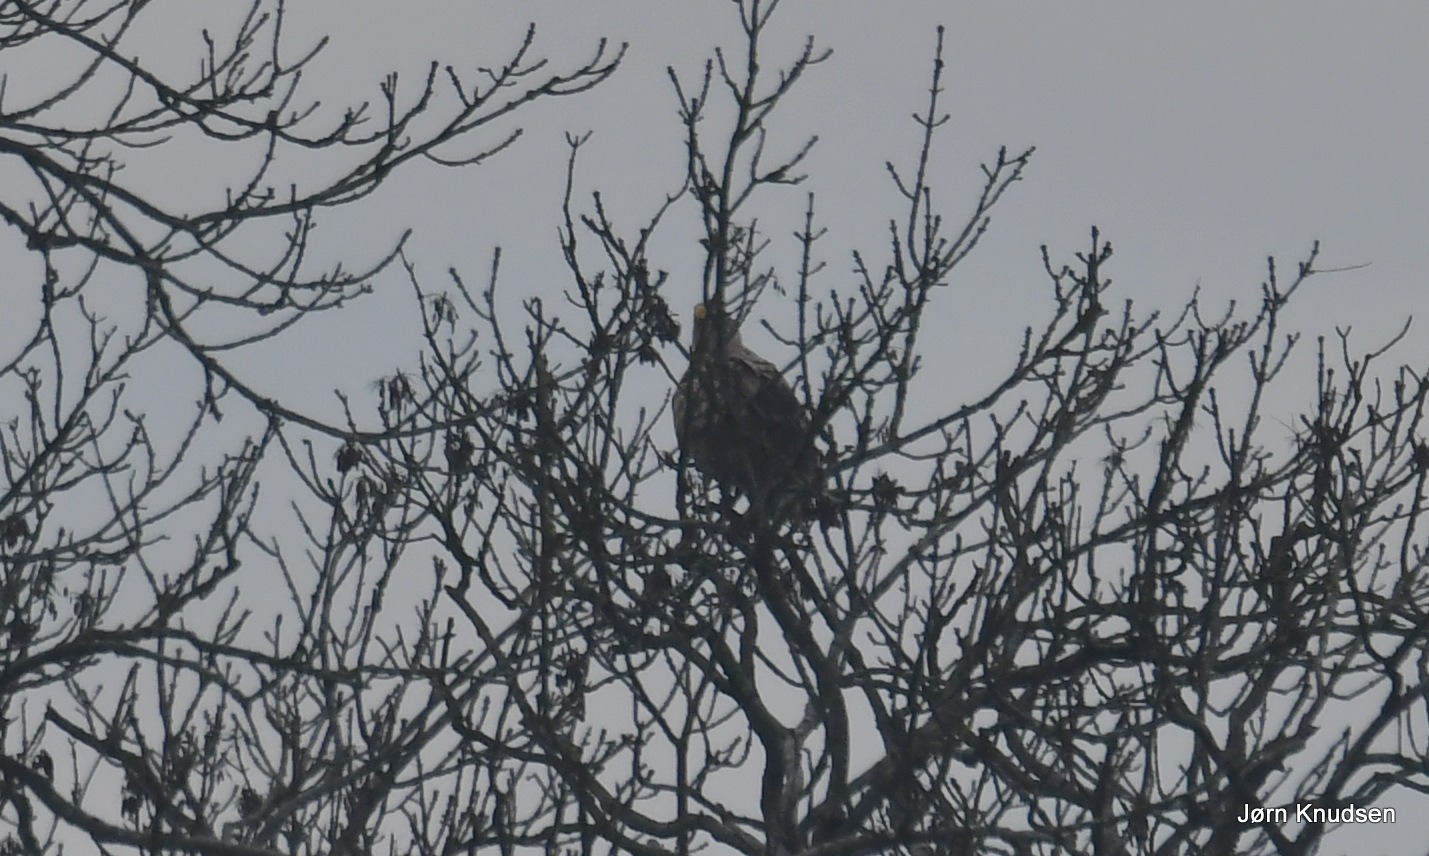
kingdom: Animalia
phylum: Chordata
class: Aves
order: Accipitriformes
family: Accipitridae
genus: Haliaeetus
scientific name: Haliaeetus albicilla
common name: Havørn
